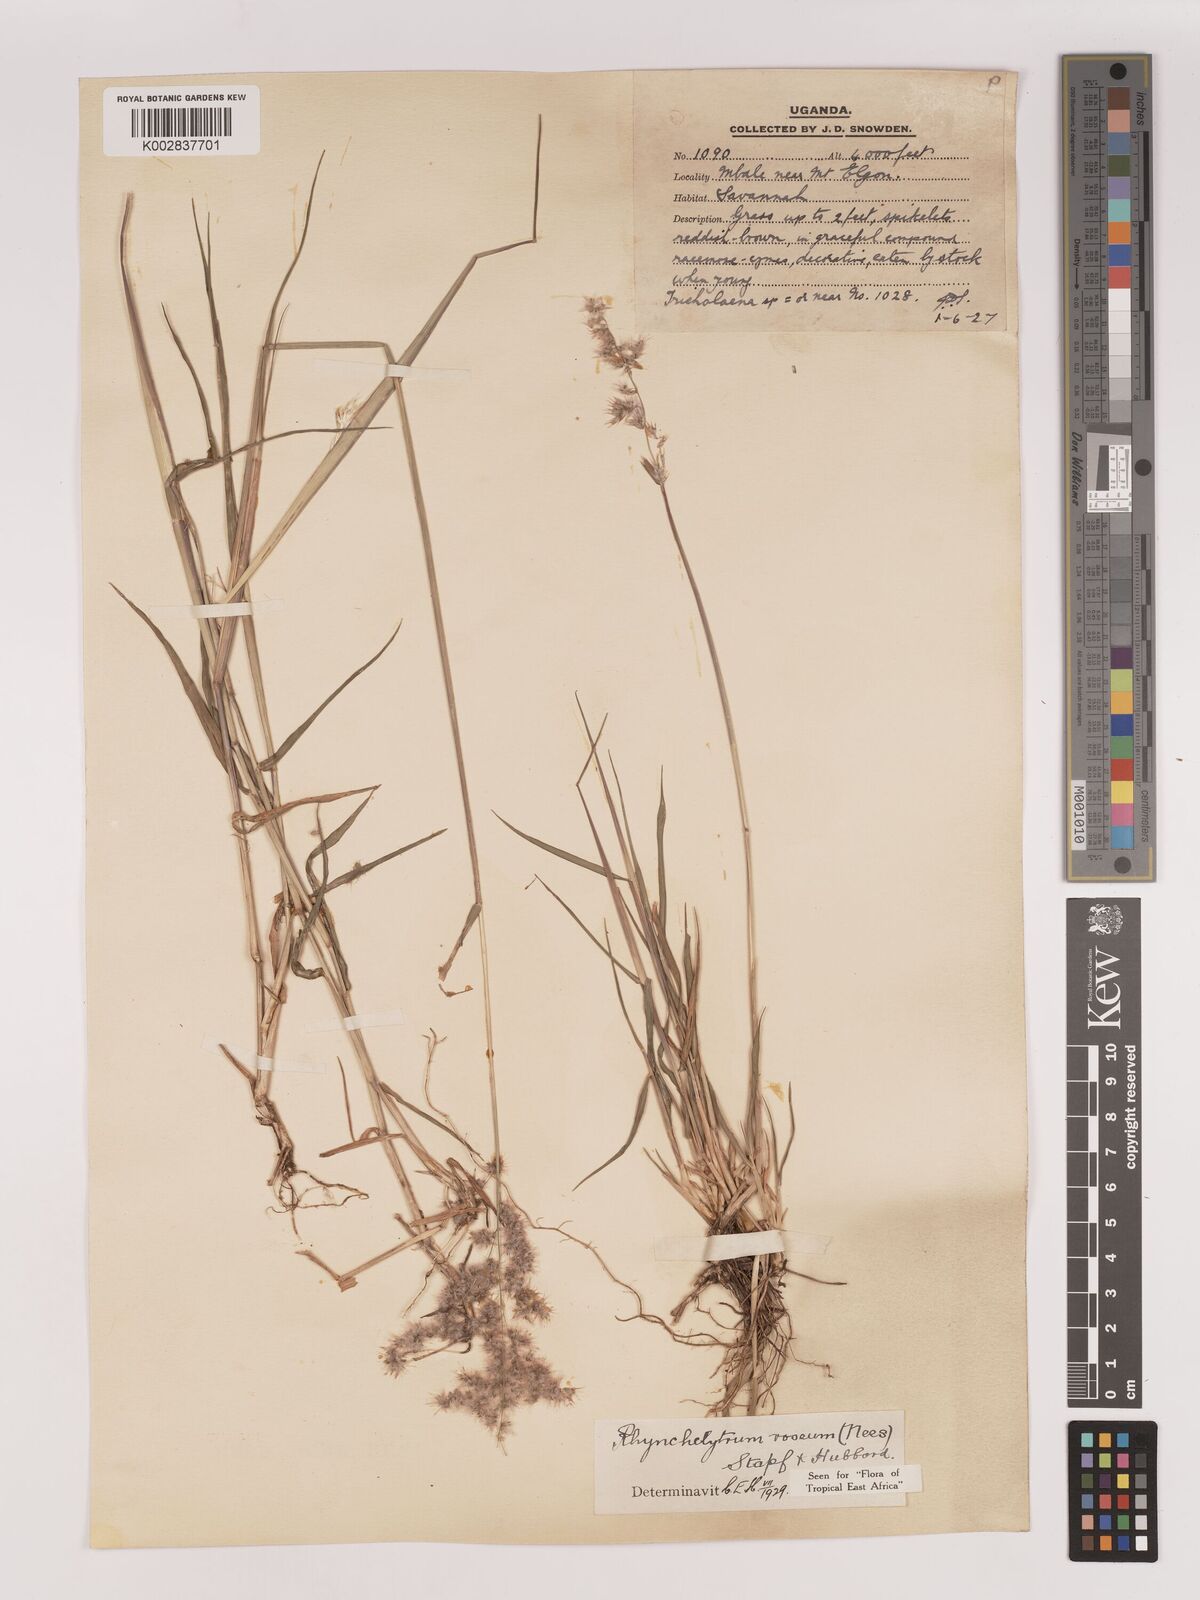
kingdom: Plantae
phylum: Tracheophyta
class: Liliopsida
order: Poales
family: Poaceae
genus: Melinis
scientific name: Melinis repens
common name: Rose natal grass
